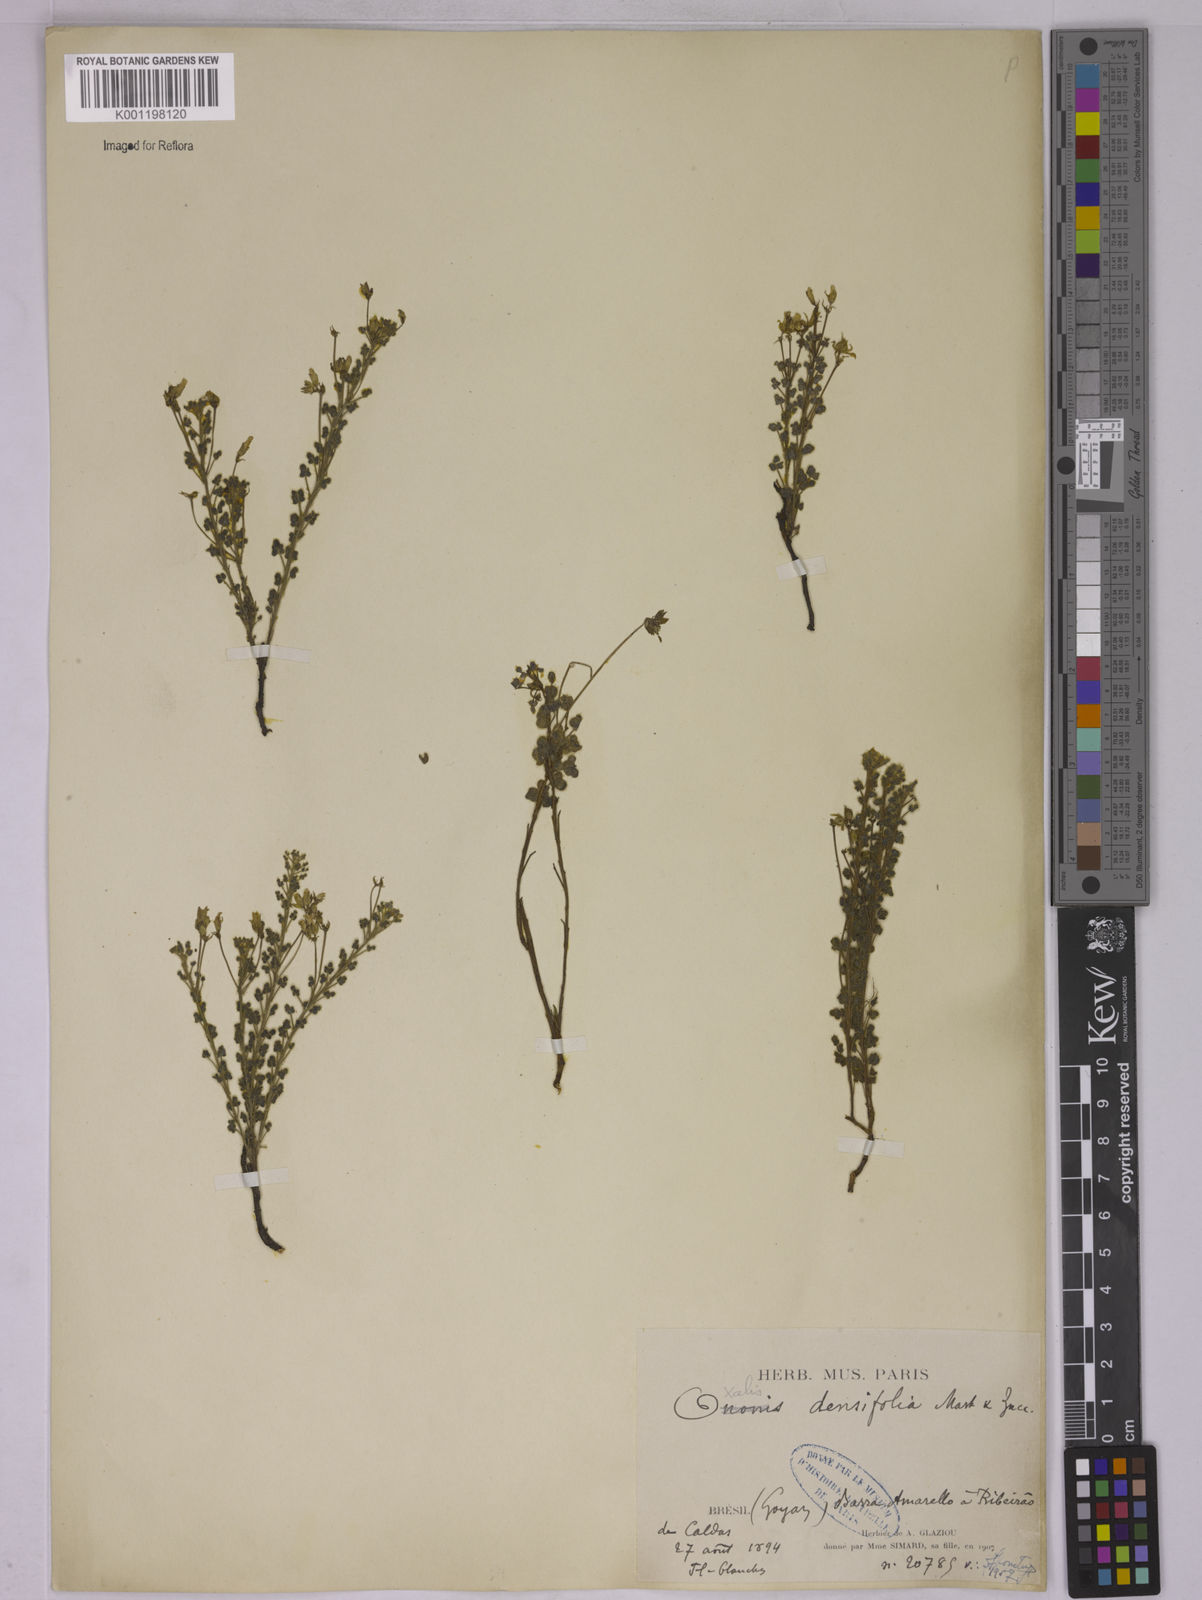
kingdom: Plantae
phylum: Tracheophyta
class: Magnoliopsida
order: Oxalidales
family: Oxalidaceae
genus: Oxalis
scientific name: Oxalis densifolia
